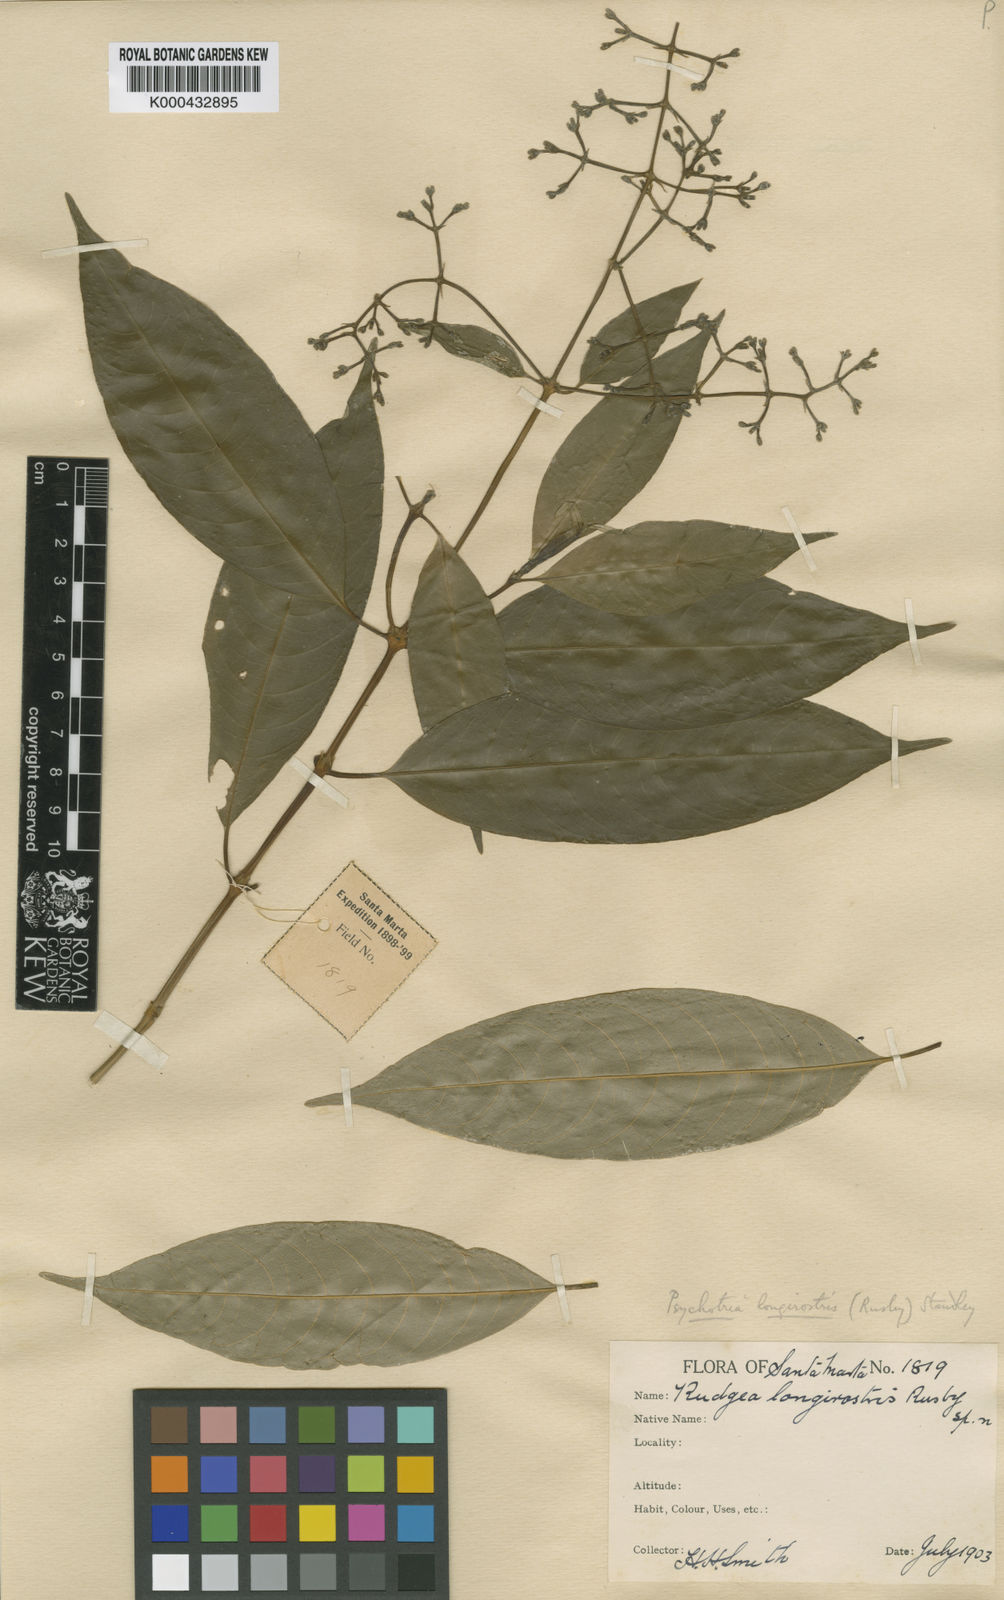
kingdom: Plantae
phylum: Tracheophyta
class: Magnoliopsida
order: Gentianales
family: Rubiaceae
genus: Palicourea
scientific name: Palicourea longirostris
